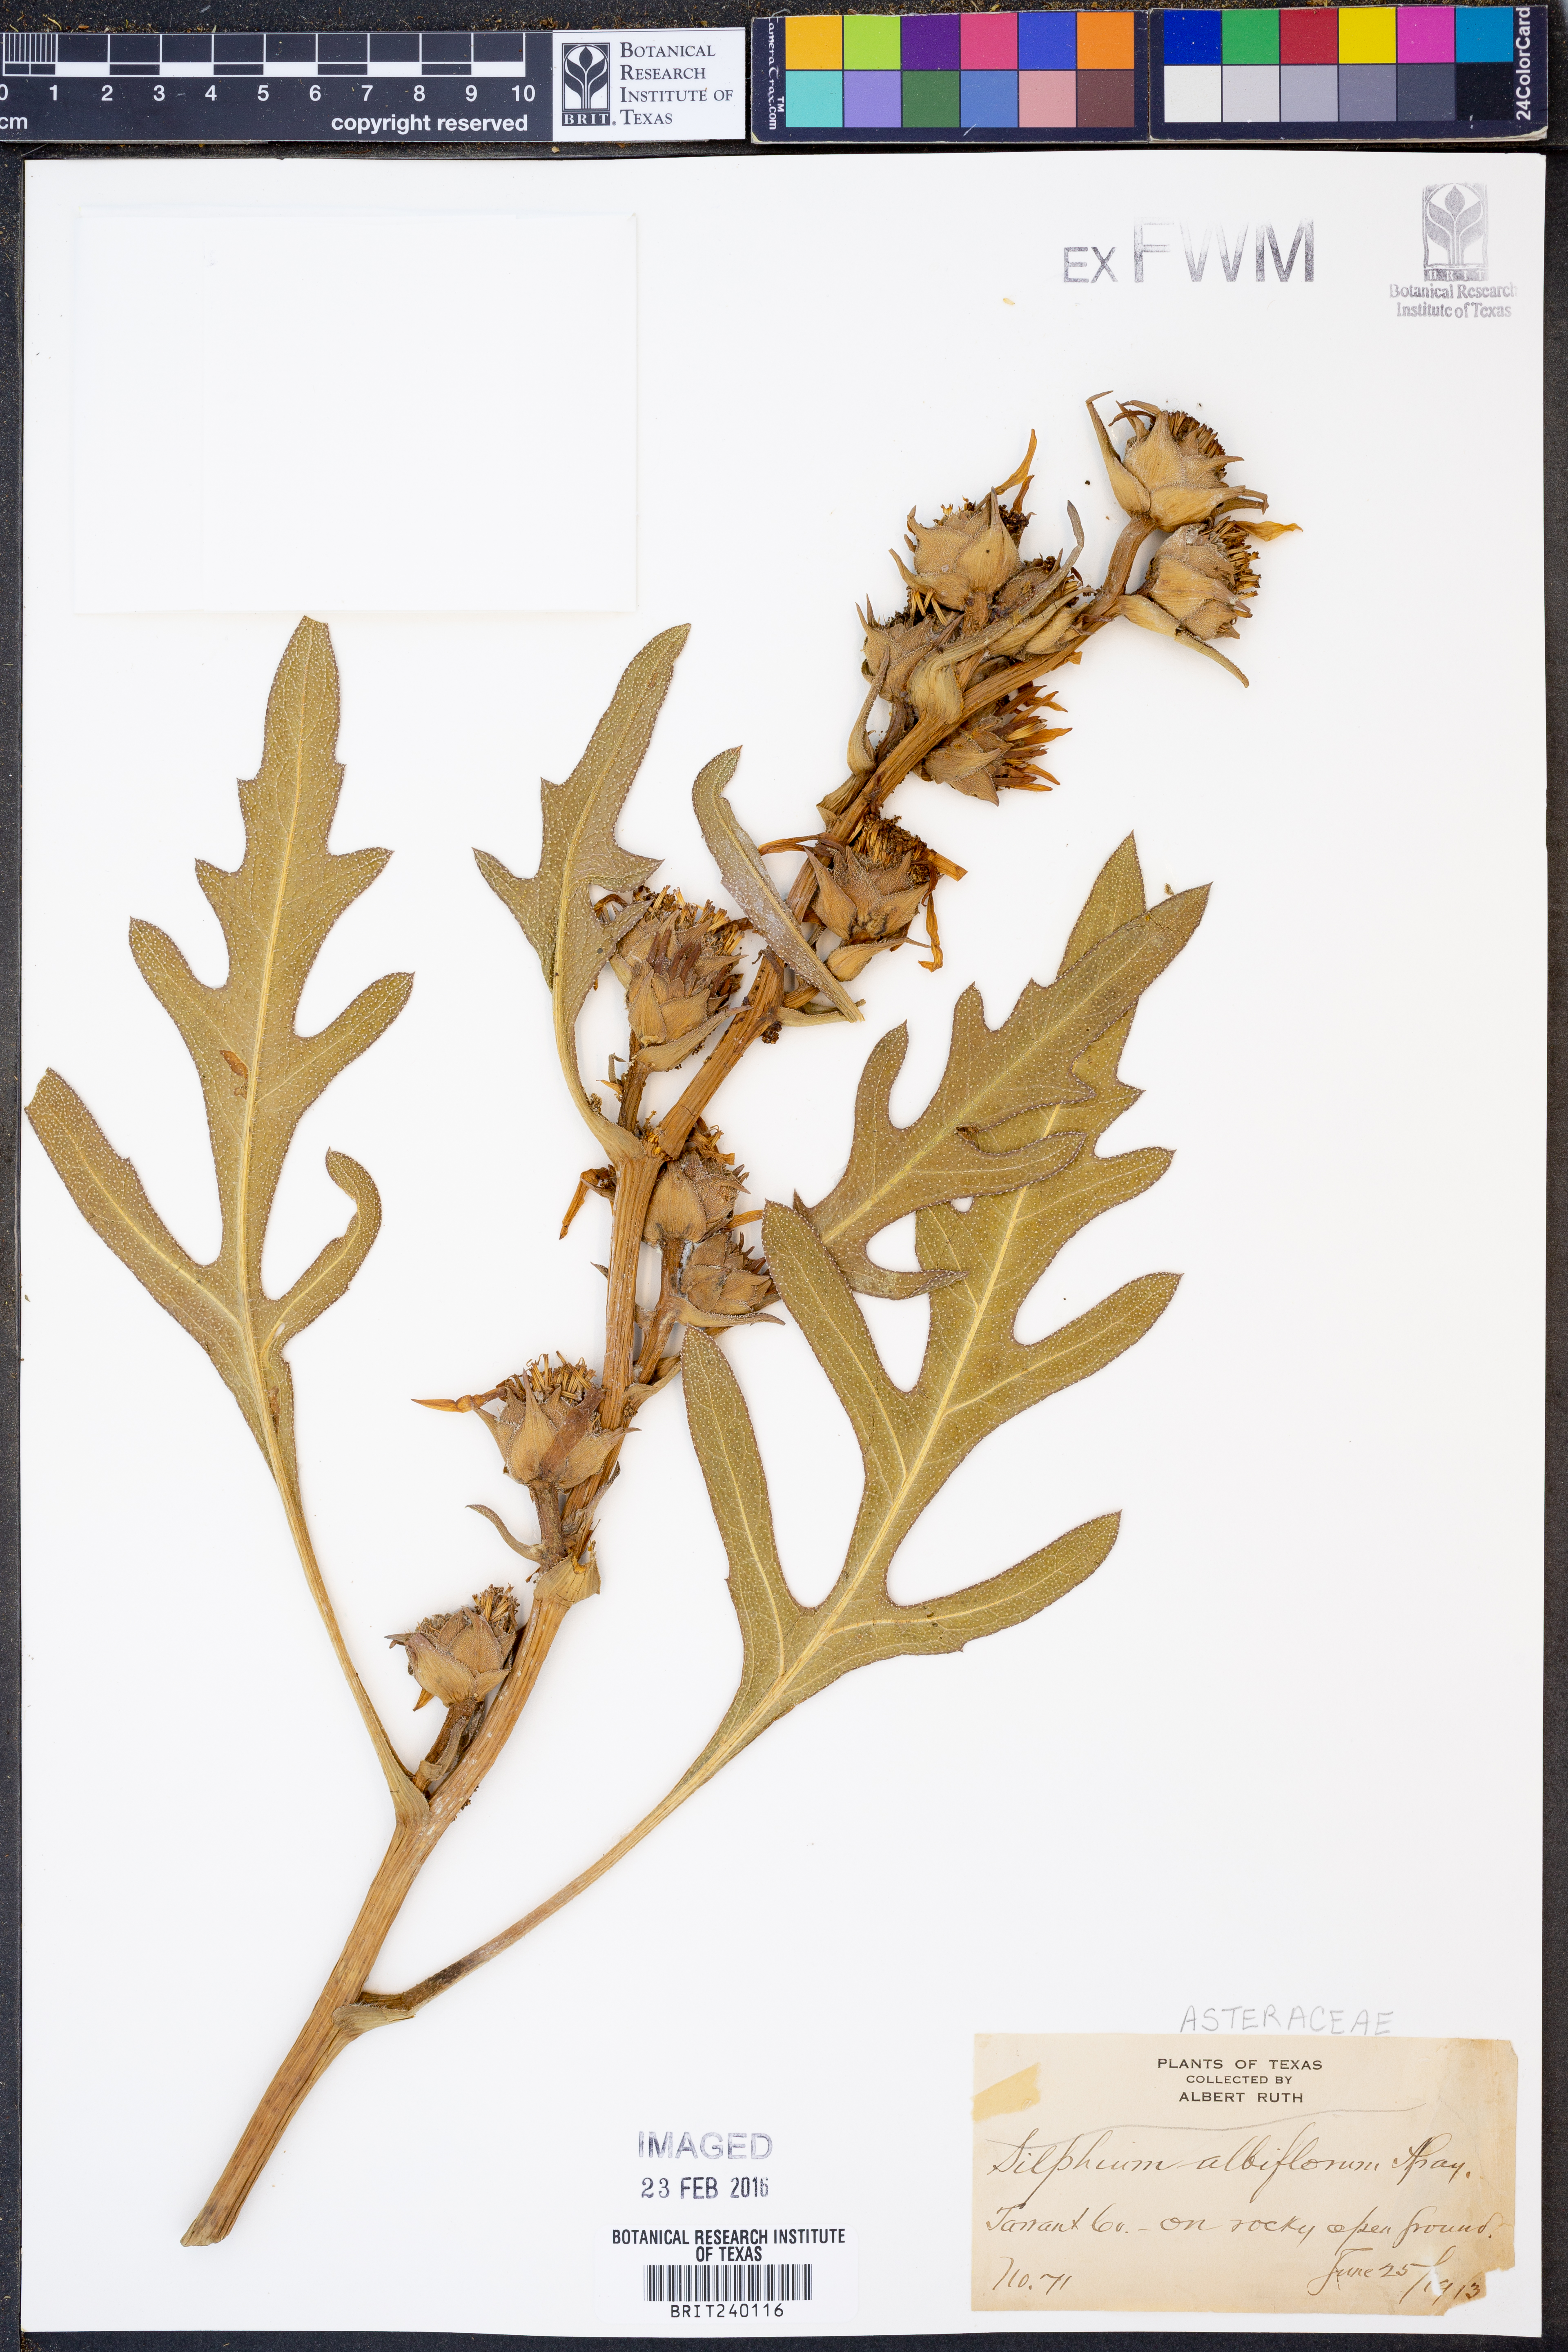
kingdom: Plantae
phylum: Tracheophyta
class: Magnoliopsida
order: Asterales
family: Asteraceae
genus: Silphium
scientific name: Silphium albiflorum
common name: White rosinweed
